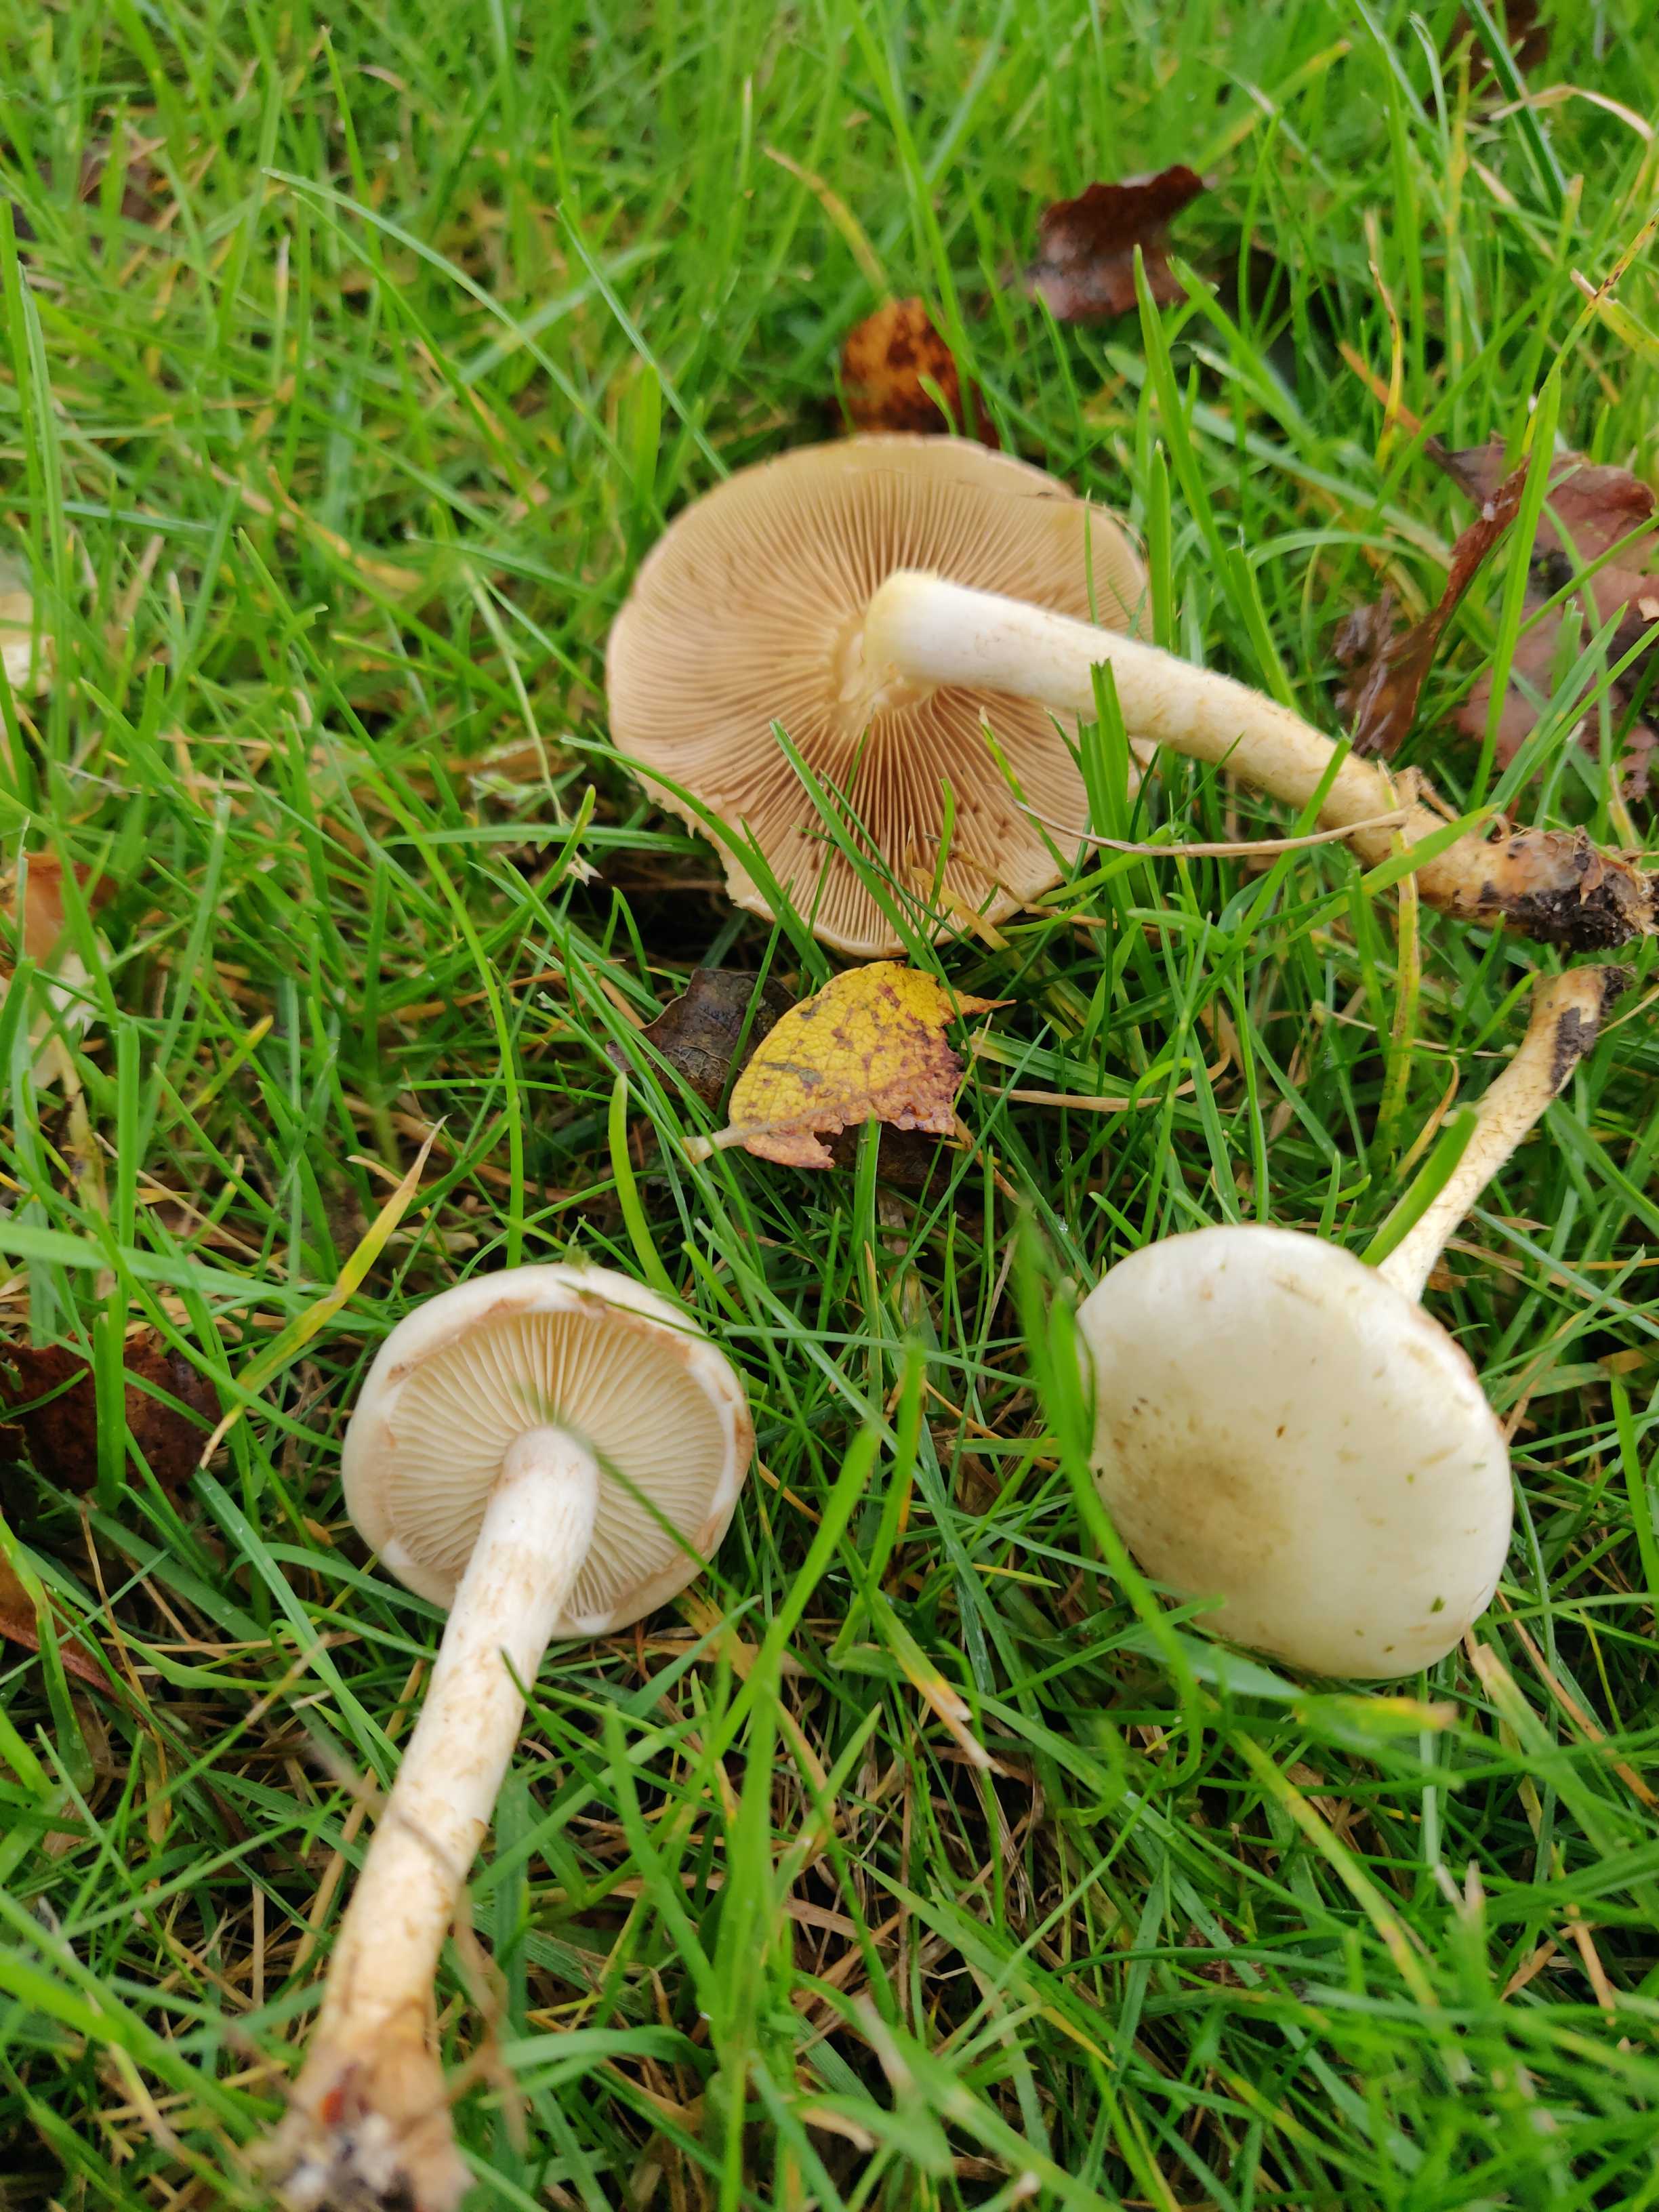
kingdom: Fungi
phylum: Basidiomycota
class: Agaricomycetes
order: Agaricales
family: Strophariaceae
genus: Pholiota
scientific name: Pholiota gummosa
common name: grøngul skælhat
